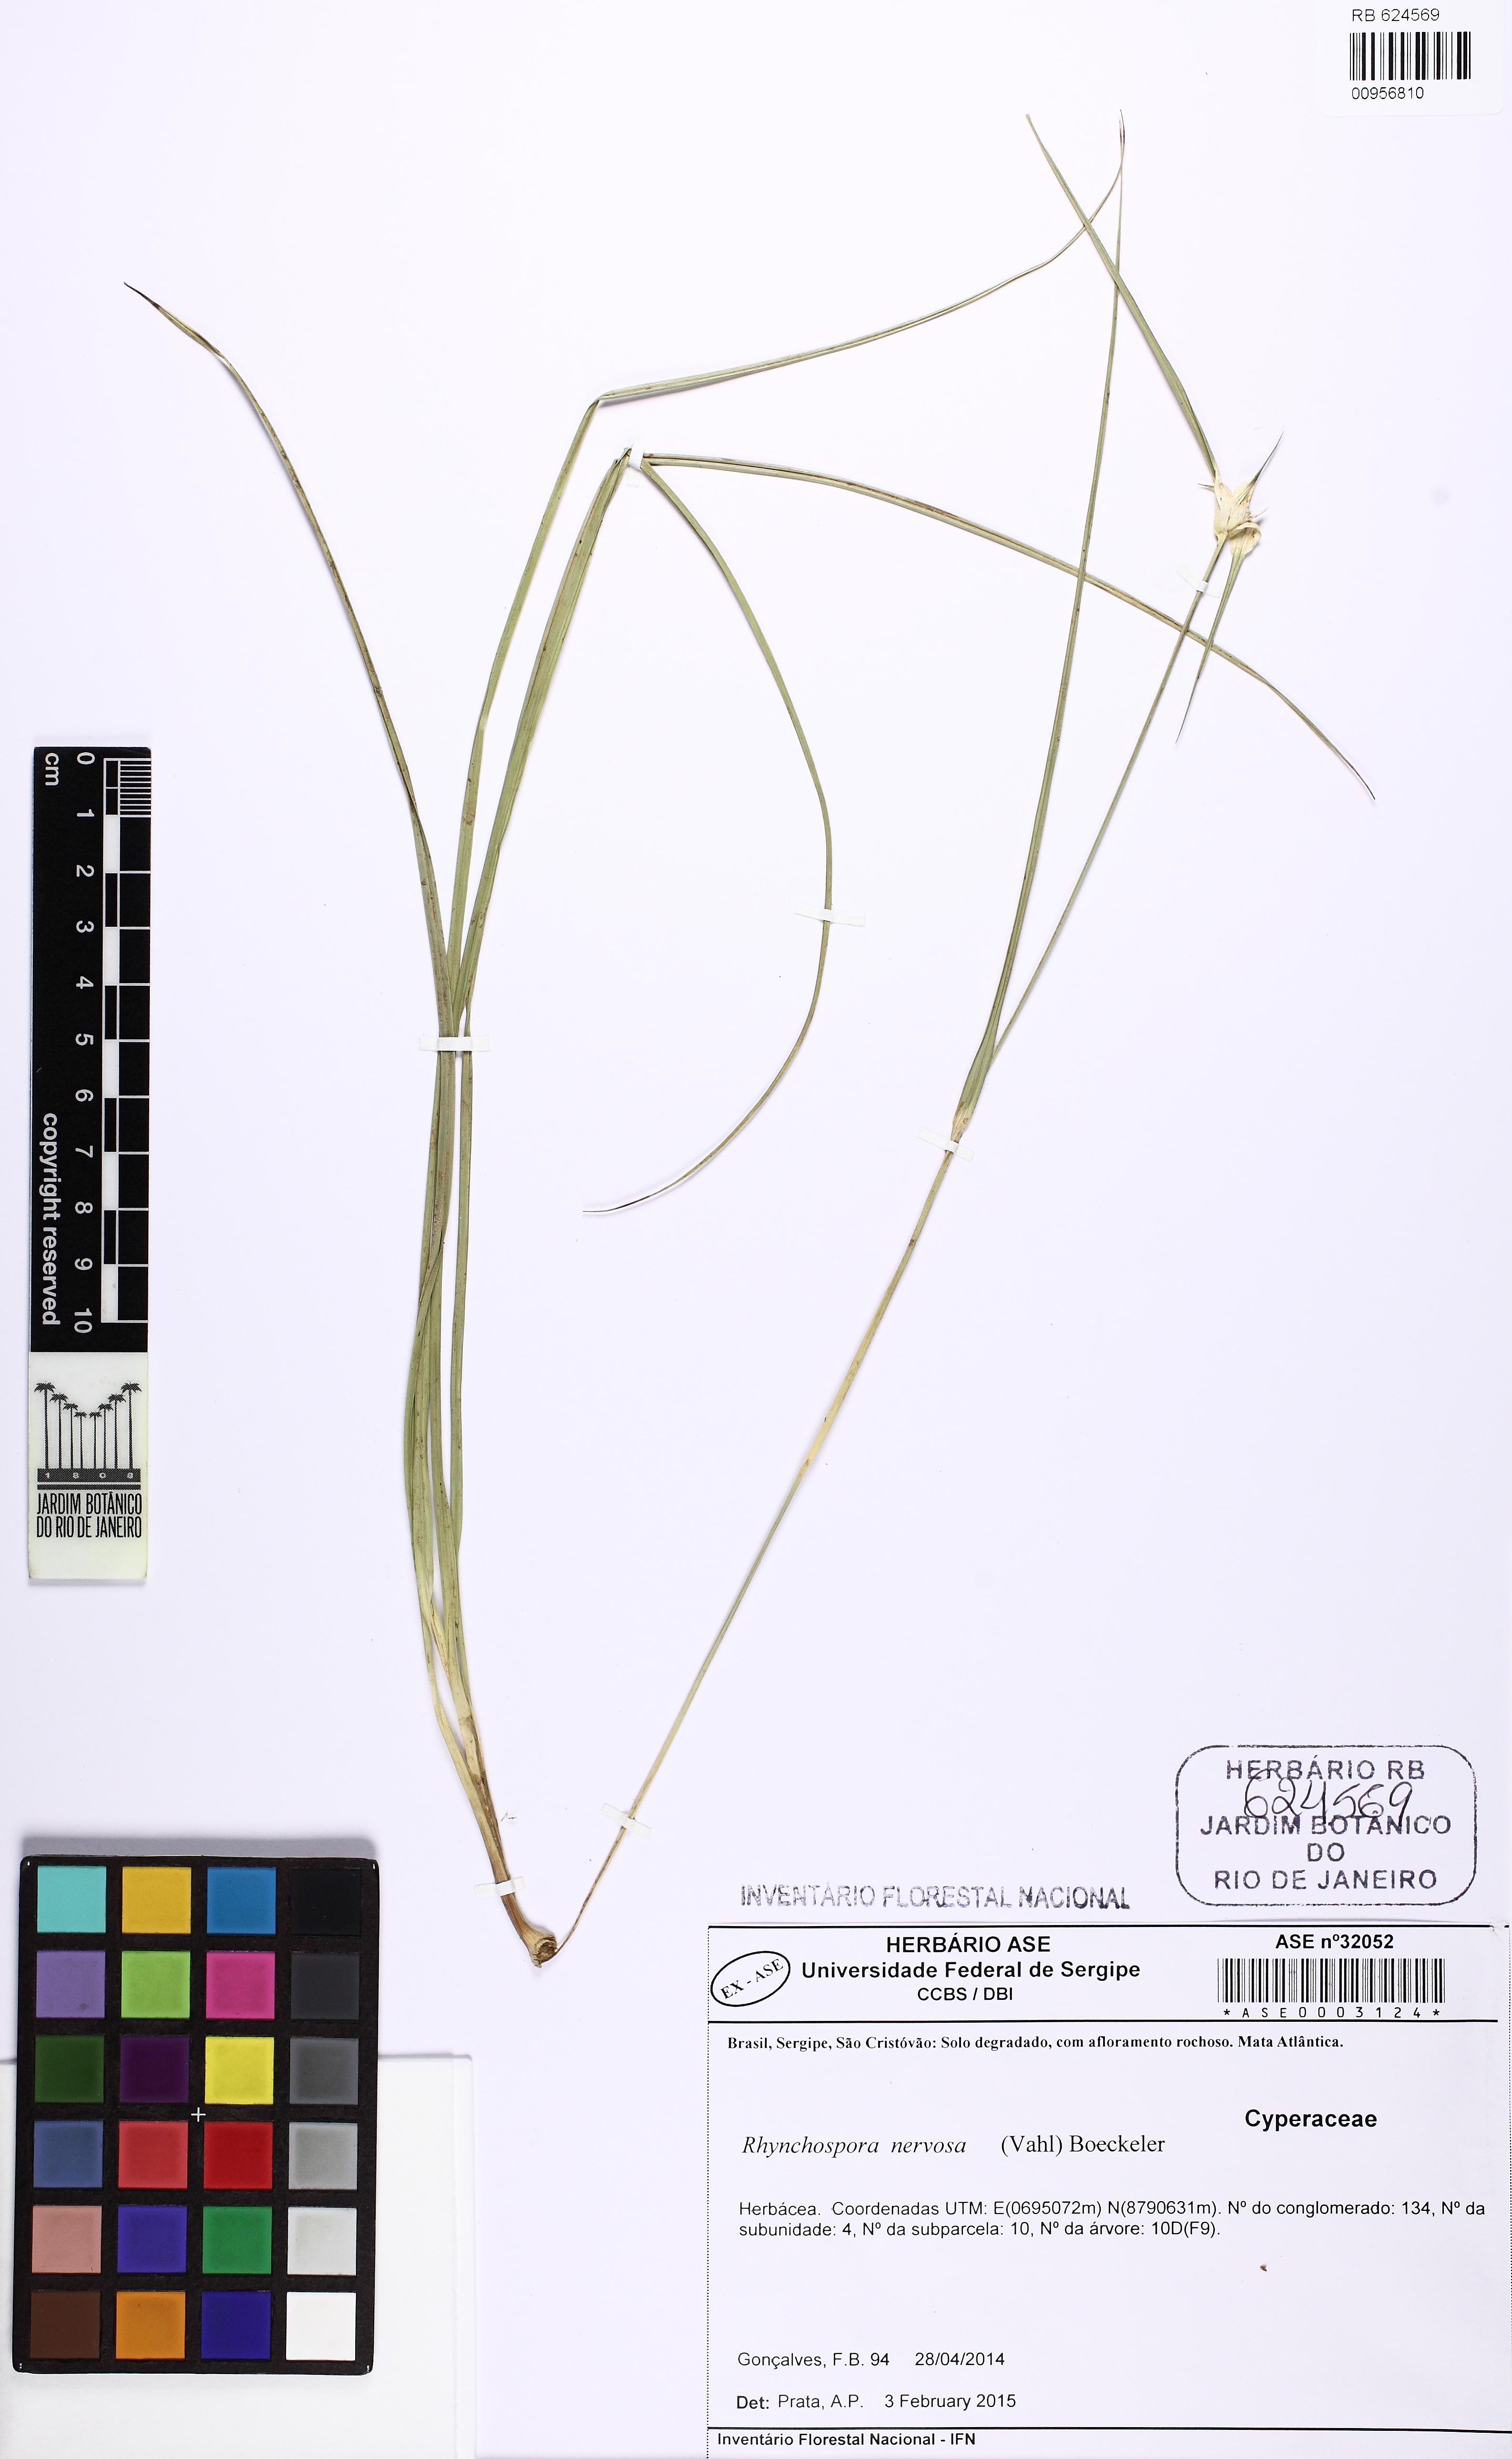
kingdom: Plantae
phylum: Tracheophyta
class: Liliopsida
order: Poales
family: Cyperaceae
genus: Rhynchospora
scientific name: Rhynchospora nervosa
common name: Star sedge
